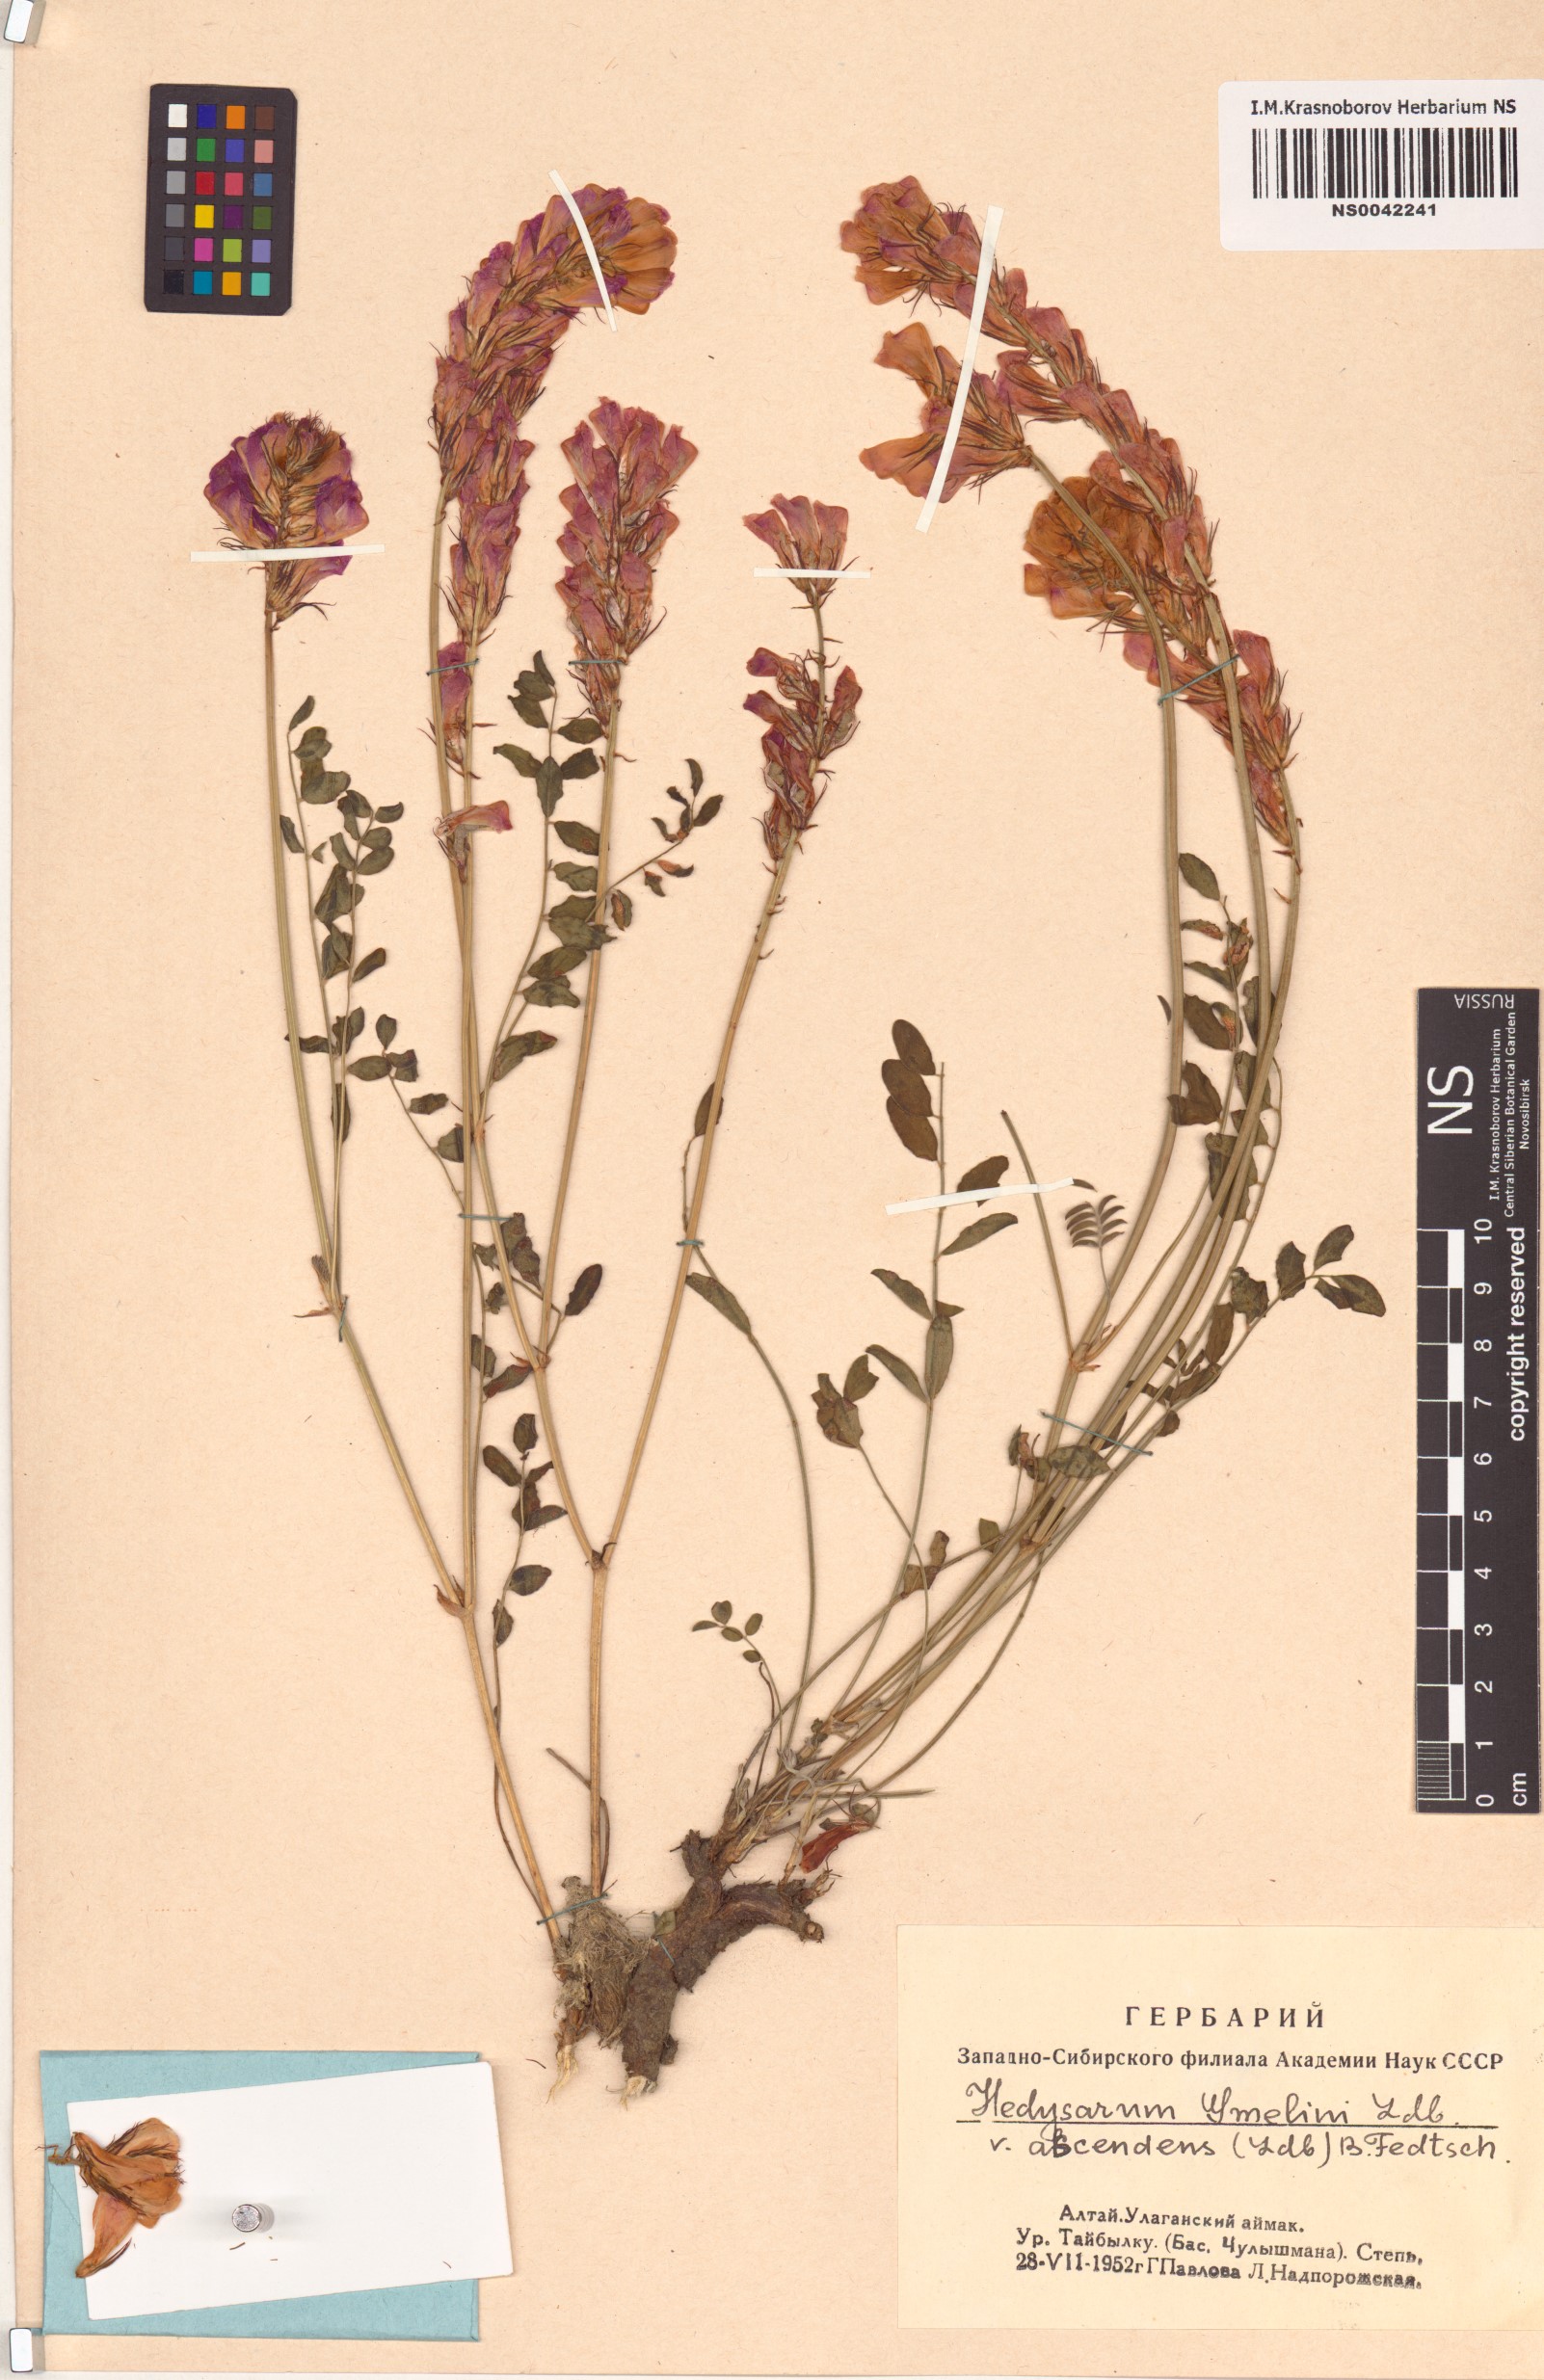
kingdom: Plantae
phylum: Tracheophyta
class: Magnoliopsida
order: Fabales
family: Fabaceae
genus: Hedysarum
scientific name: Hedysarum gmelinii
